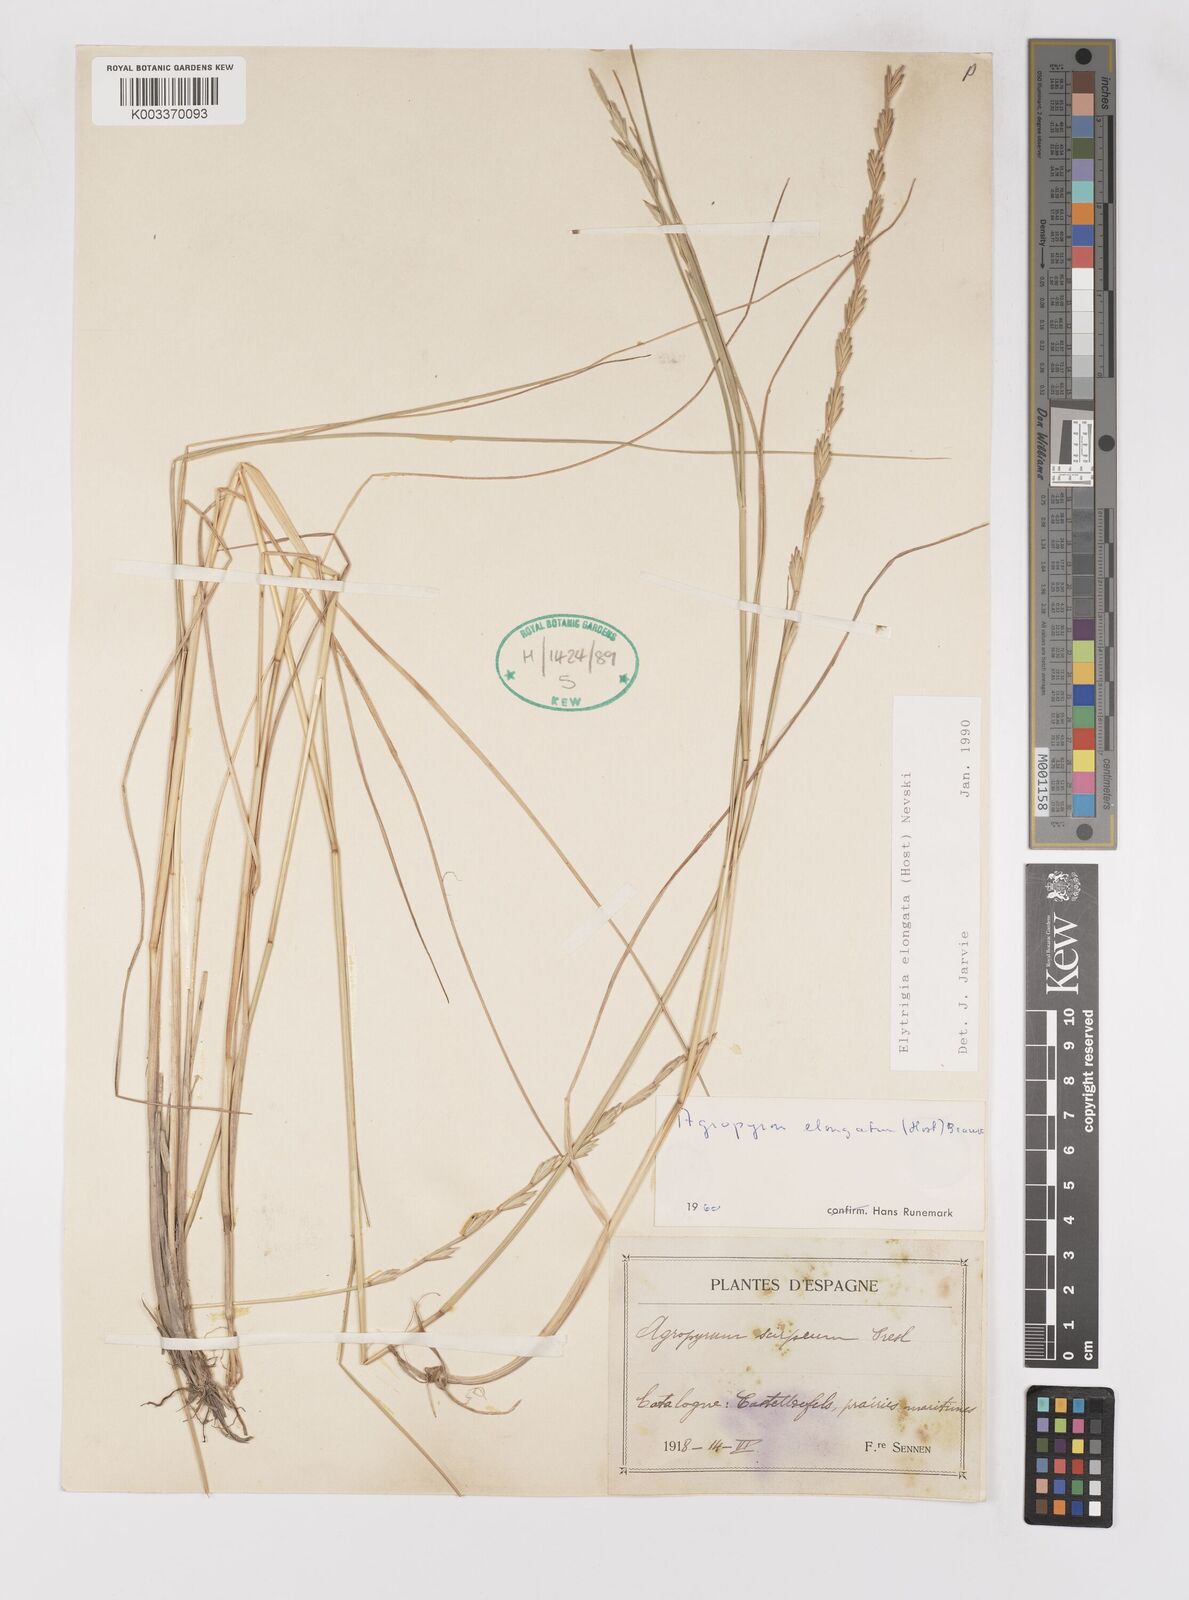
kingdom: Plantae
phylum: Tracheophyta
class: Liliopsida
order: Poales
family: Poaceae
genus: Thinopyrum
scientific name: Thinopyrum elongatum
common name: Tall wheatgrass
